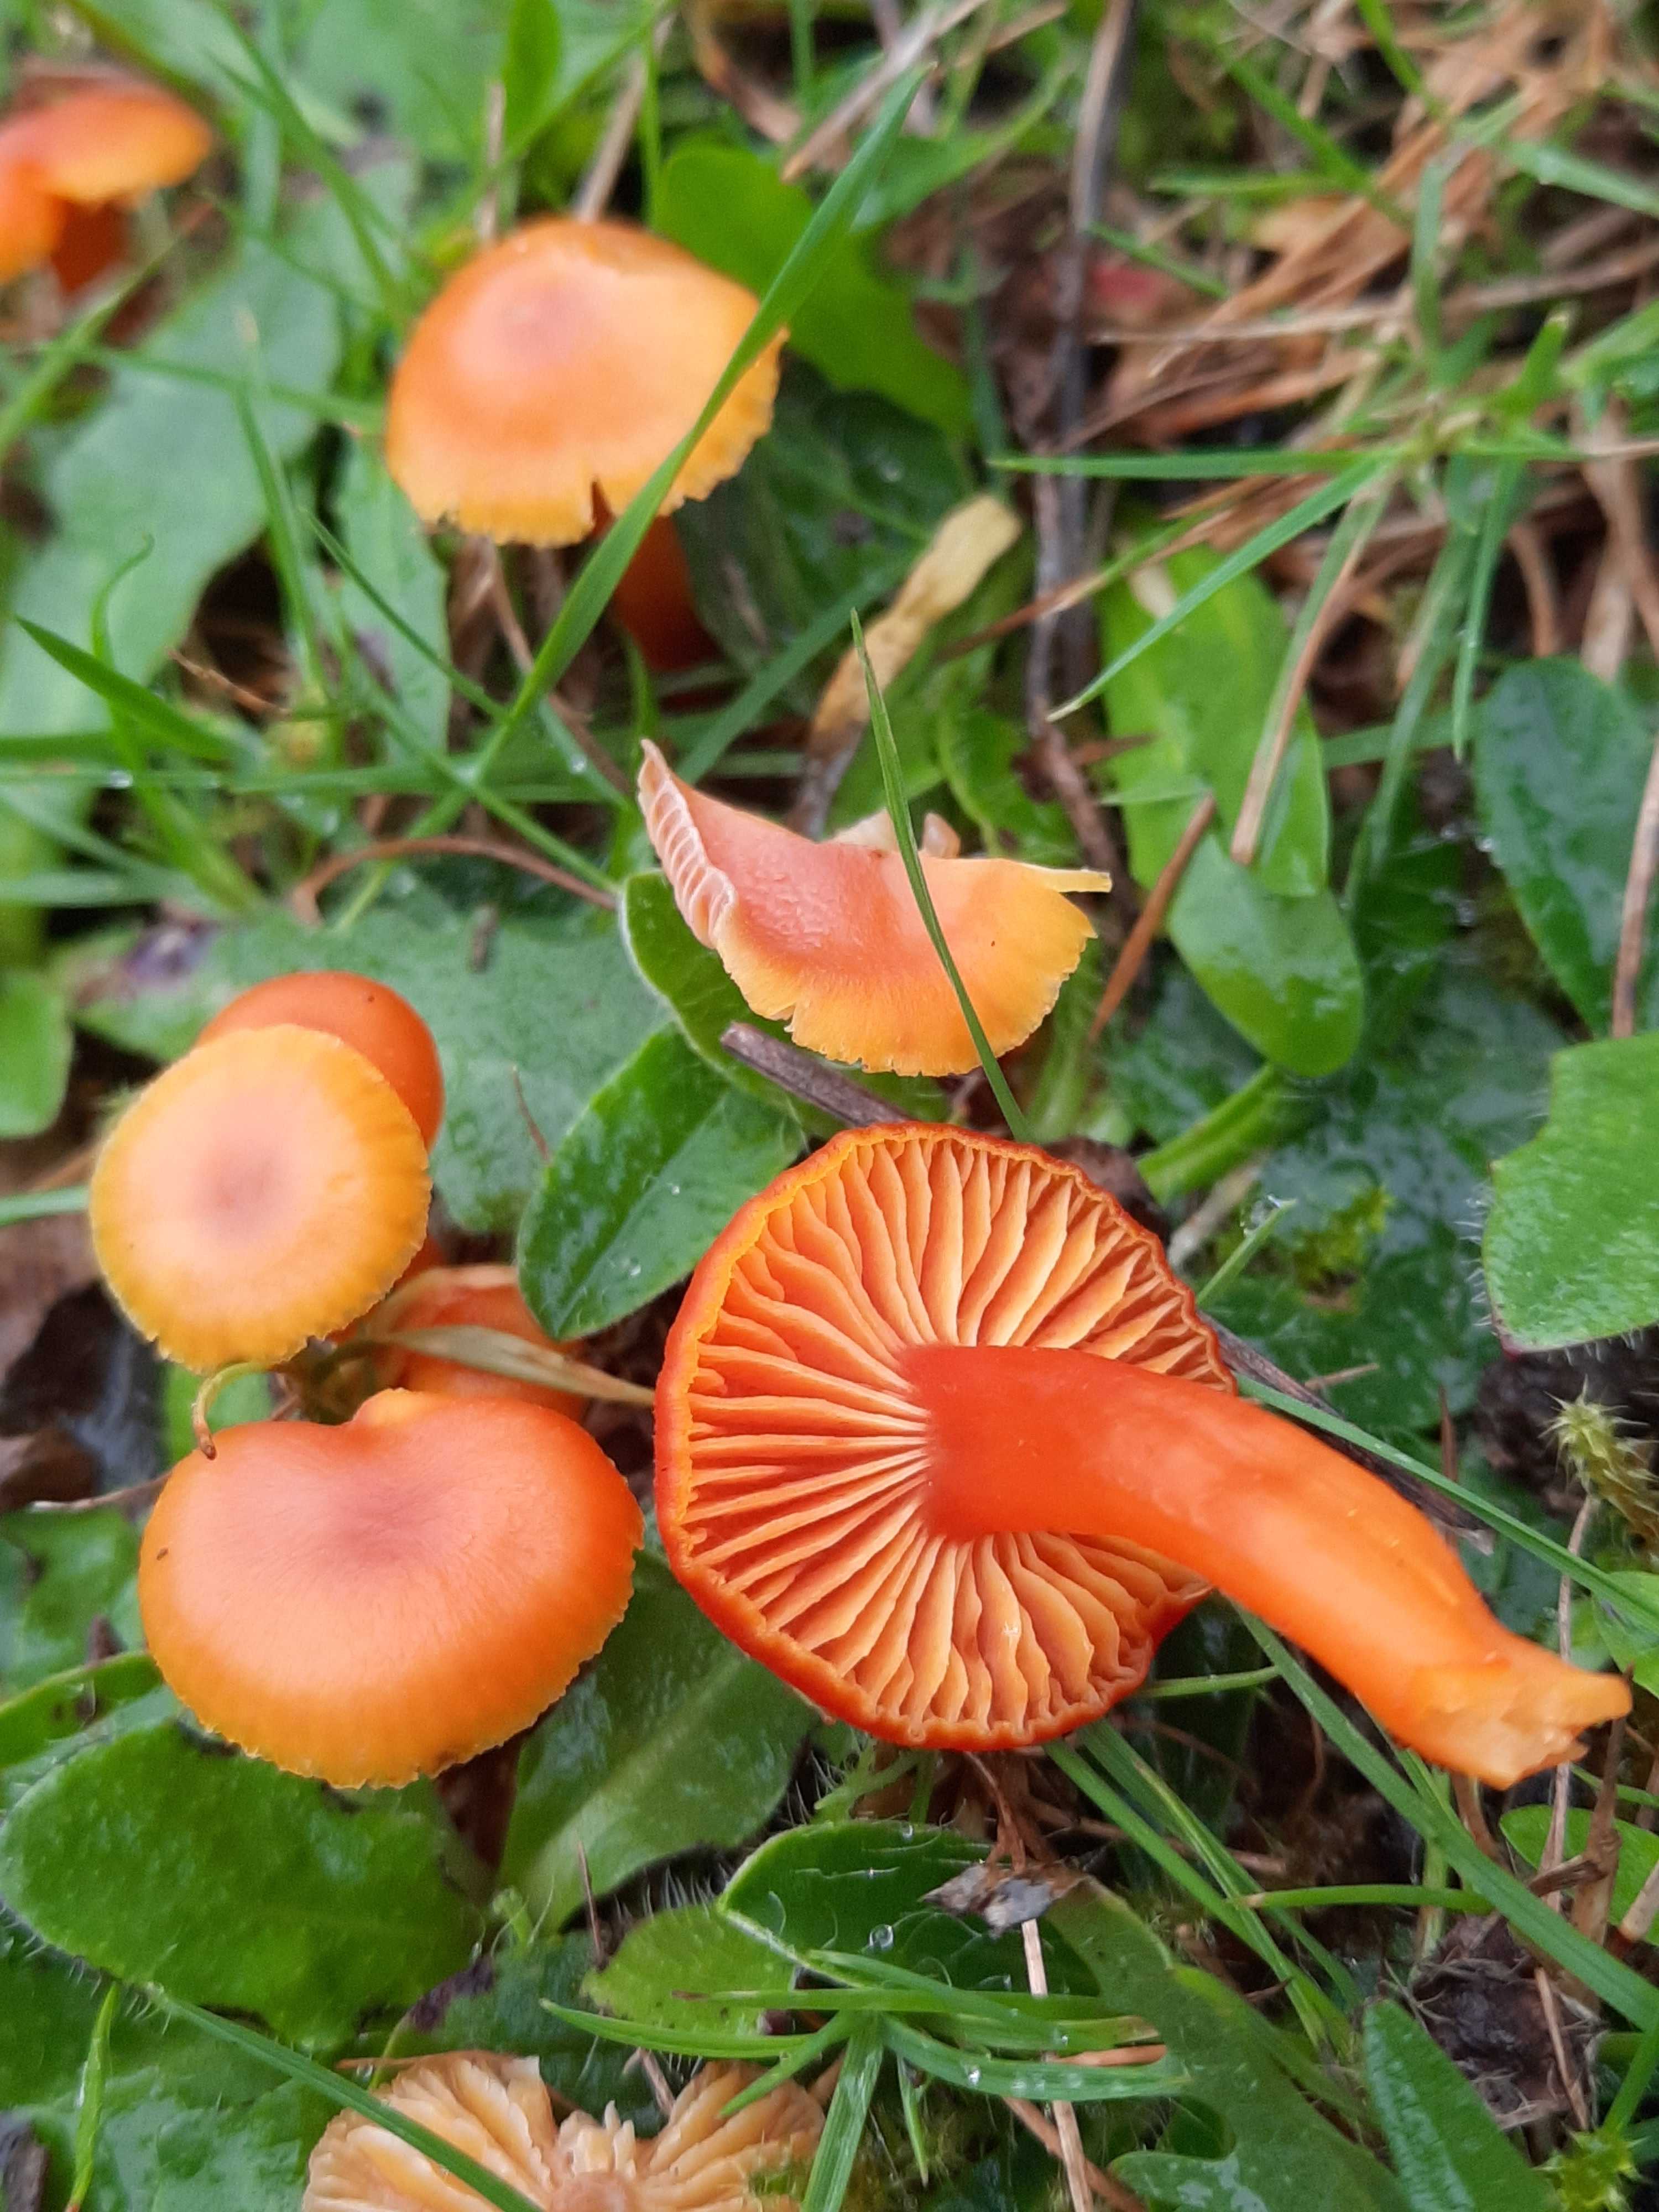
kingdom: Fungi
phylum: Basidiomycota
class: Agaricomycetes
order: Agaricales
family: Hygrophoraceae
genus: Hygrocybe
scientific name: Hygrocybe miniata
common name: mønje-vokshat
